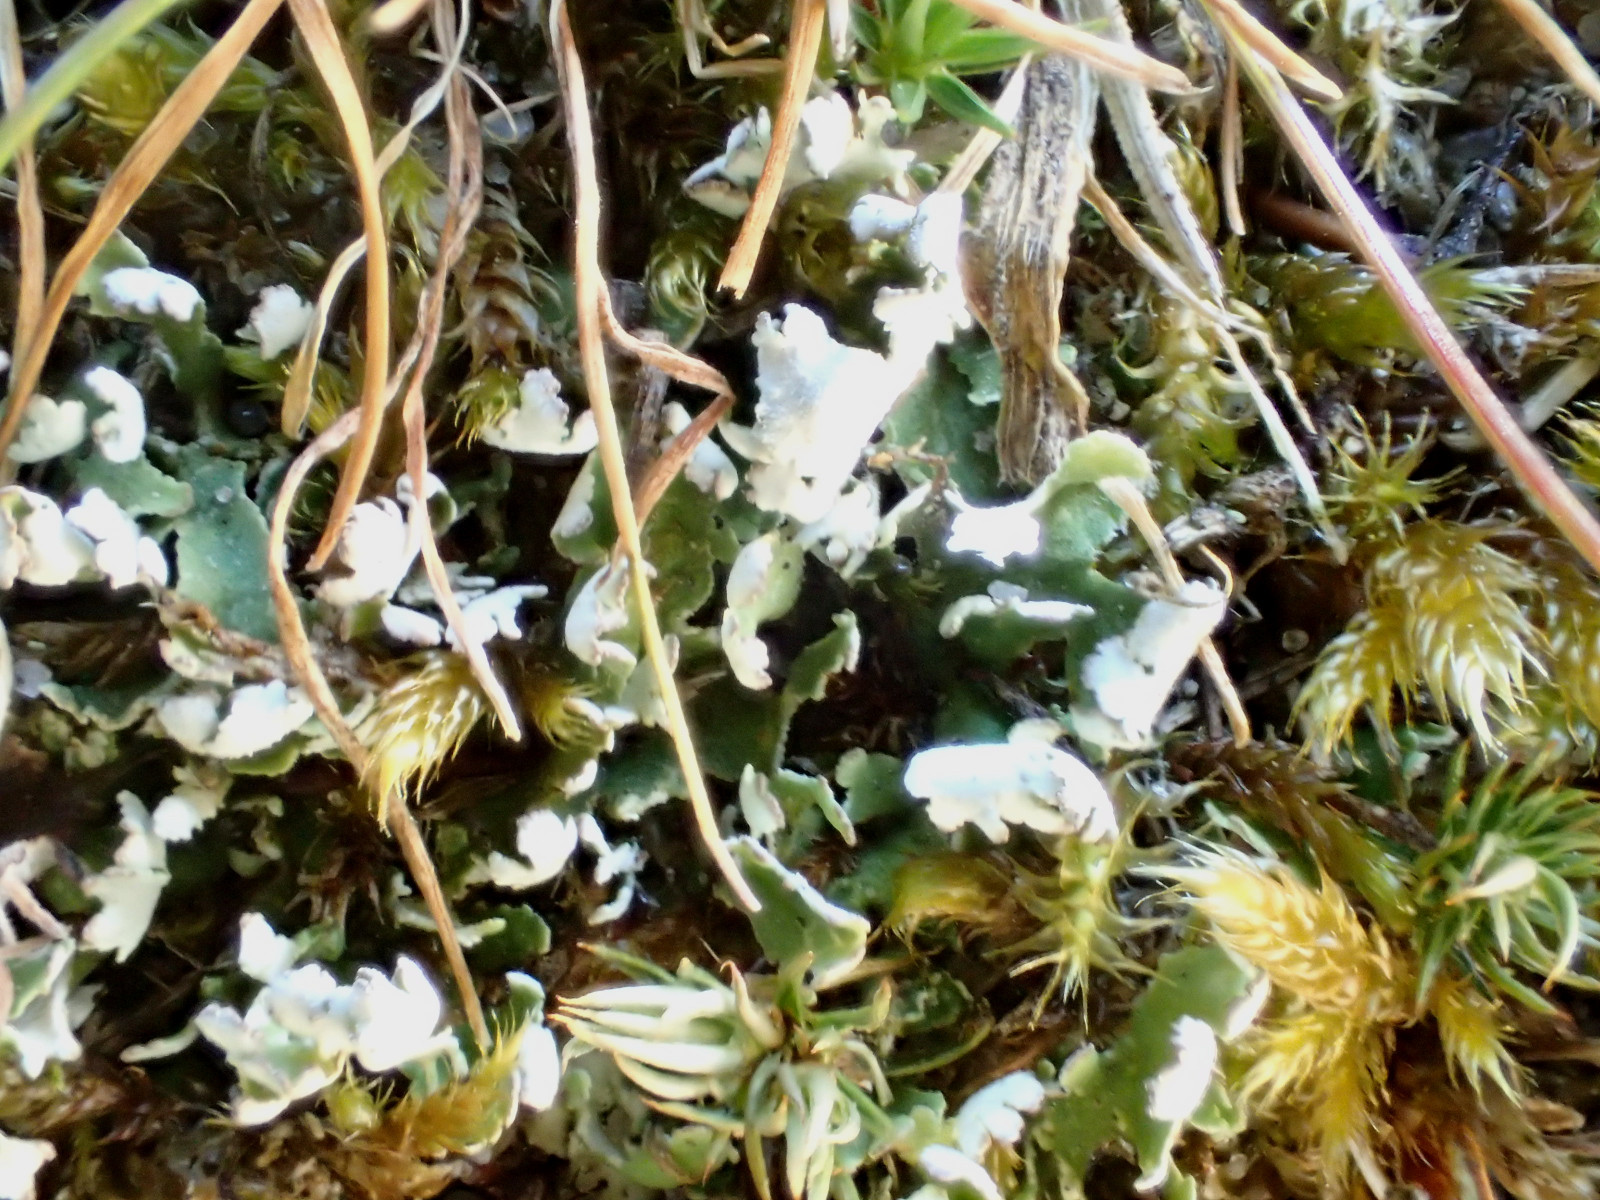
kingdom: Fungi
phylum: Ascomycota
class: Lecanoromycetes
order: Lecanorales
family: Cladoniaceae
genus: Cladonia
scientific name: Cladonia foliacea
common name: fliget bægerlav
